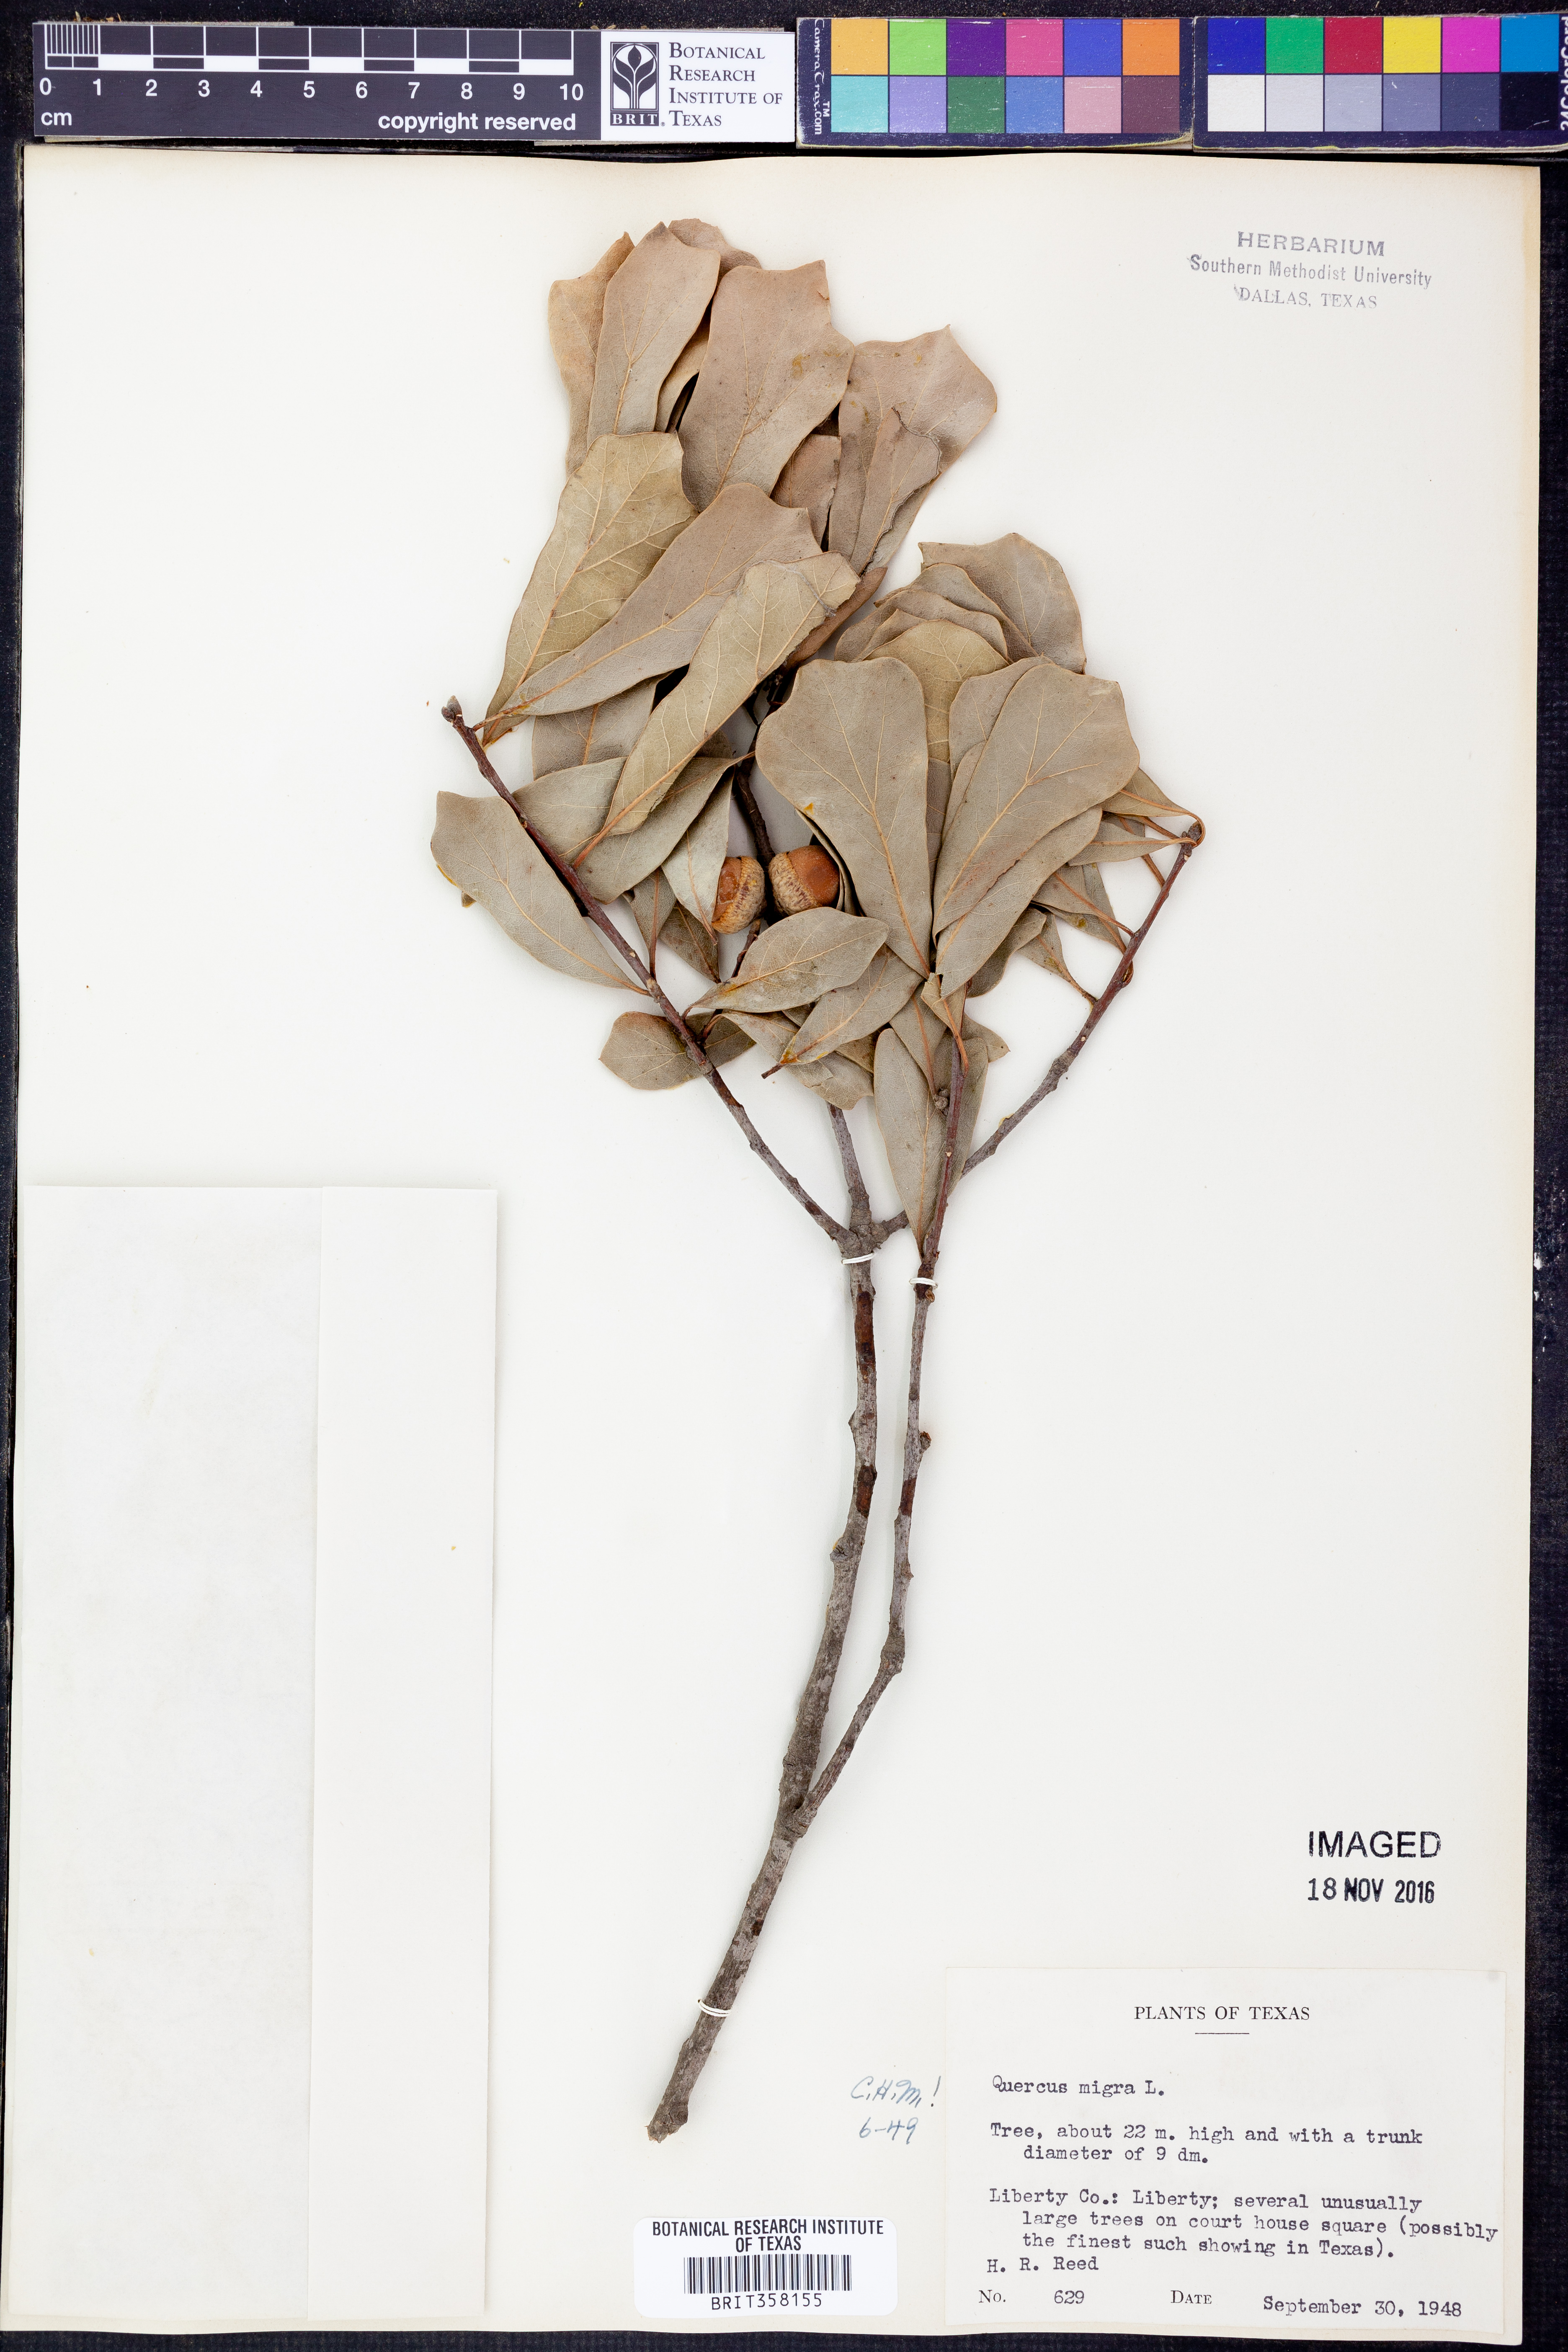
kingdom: Plantae
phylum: Tracheophyta
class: Magnoliopsida
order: Fagales
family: Fagaceae
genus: Quercus
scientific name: Quercus nigra
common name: Water oak
